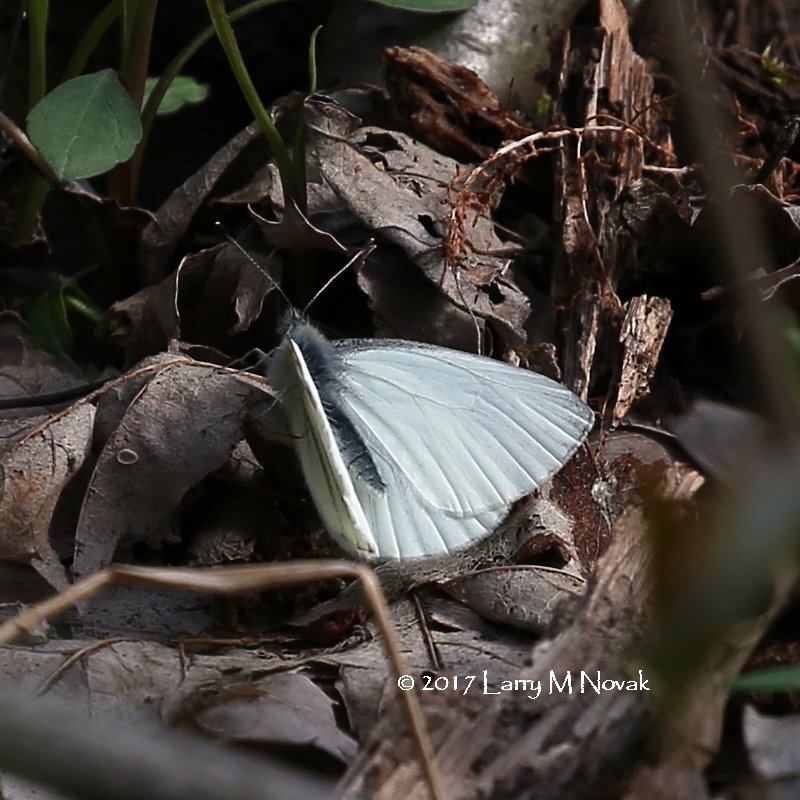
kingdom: Animalia
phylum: Arthropoda
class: Insecta
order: Lepidoptera
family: Pieridae
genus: Pieris
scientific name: Pieris oleracea
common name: Mustard White
